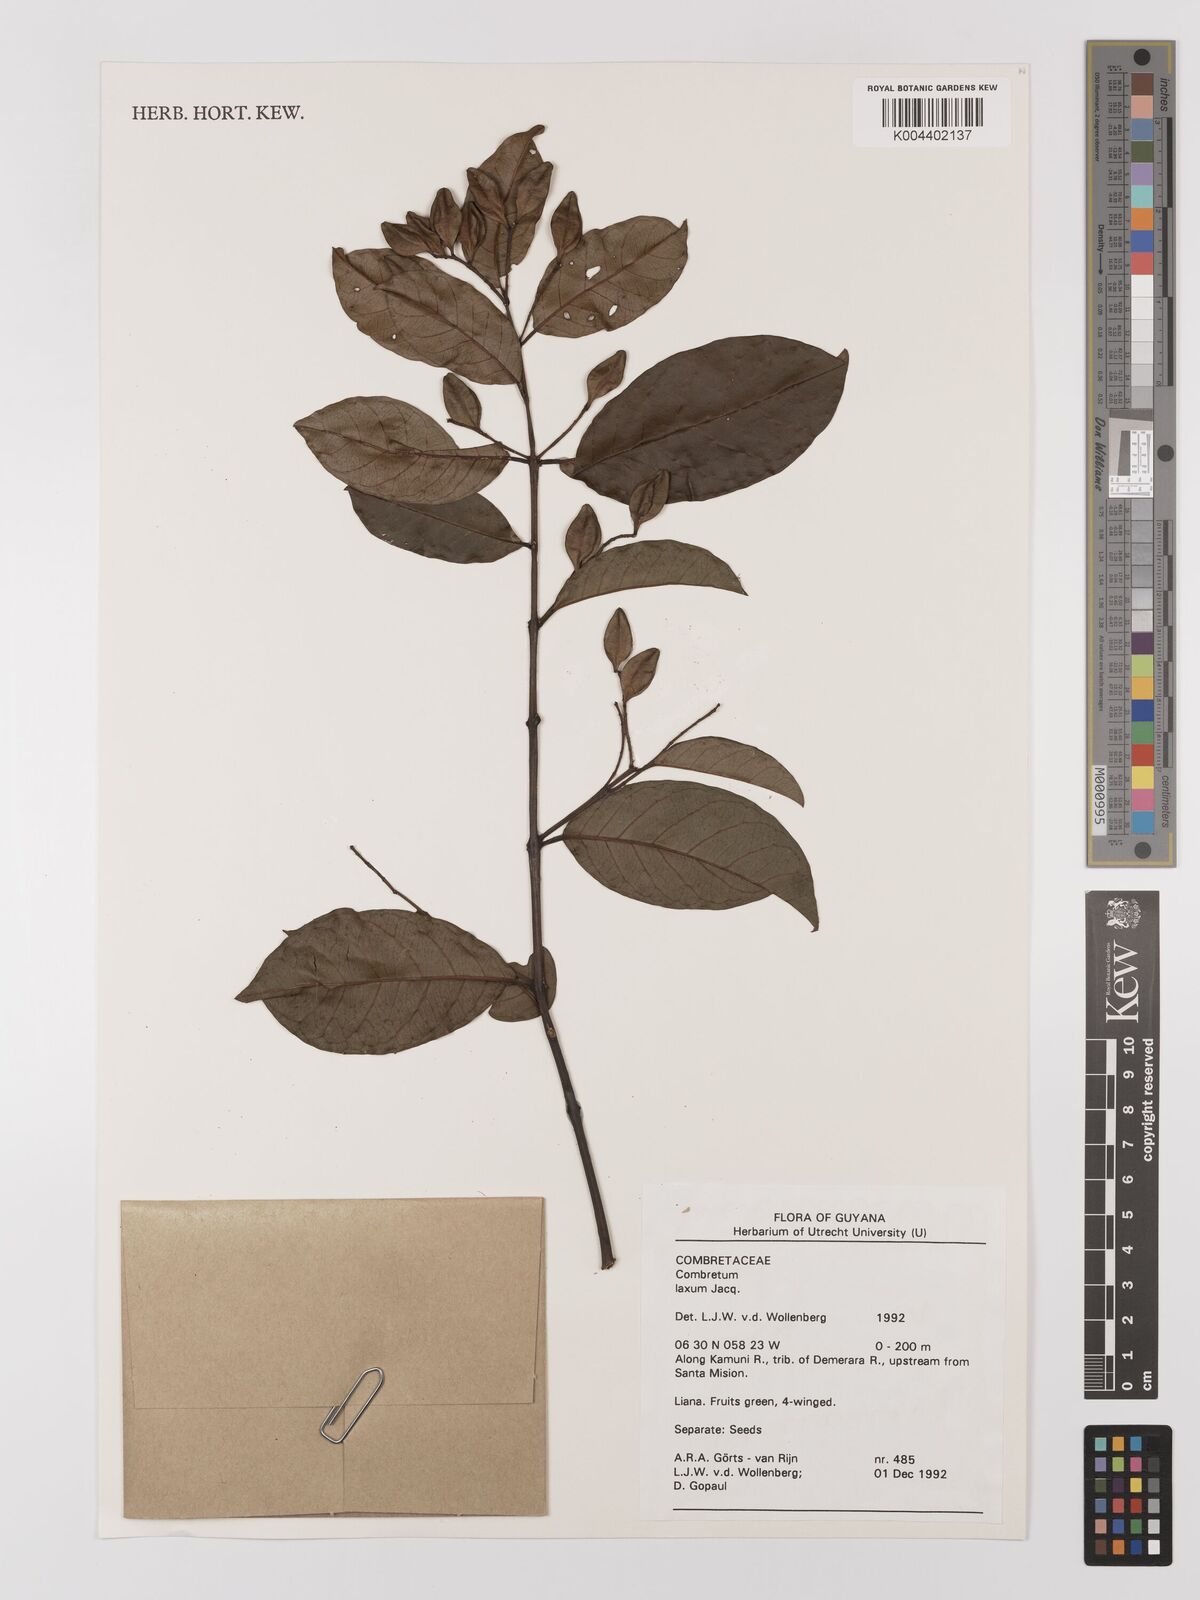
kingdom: Plantae
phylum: Tracheophyta
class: Magnoliopsida
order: Myrtales
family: Combretaceae
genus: Combretum
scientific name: Combretum
